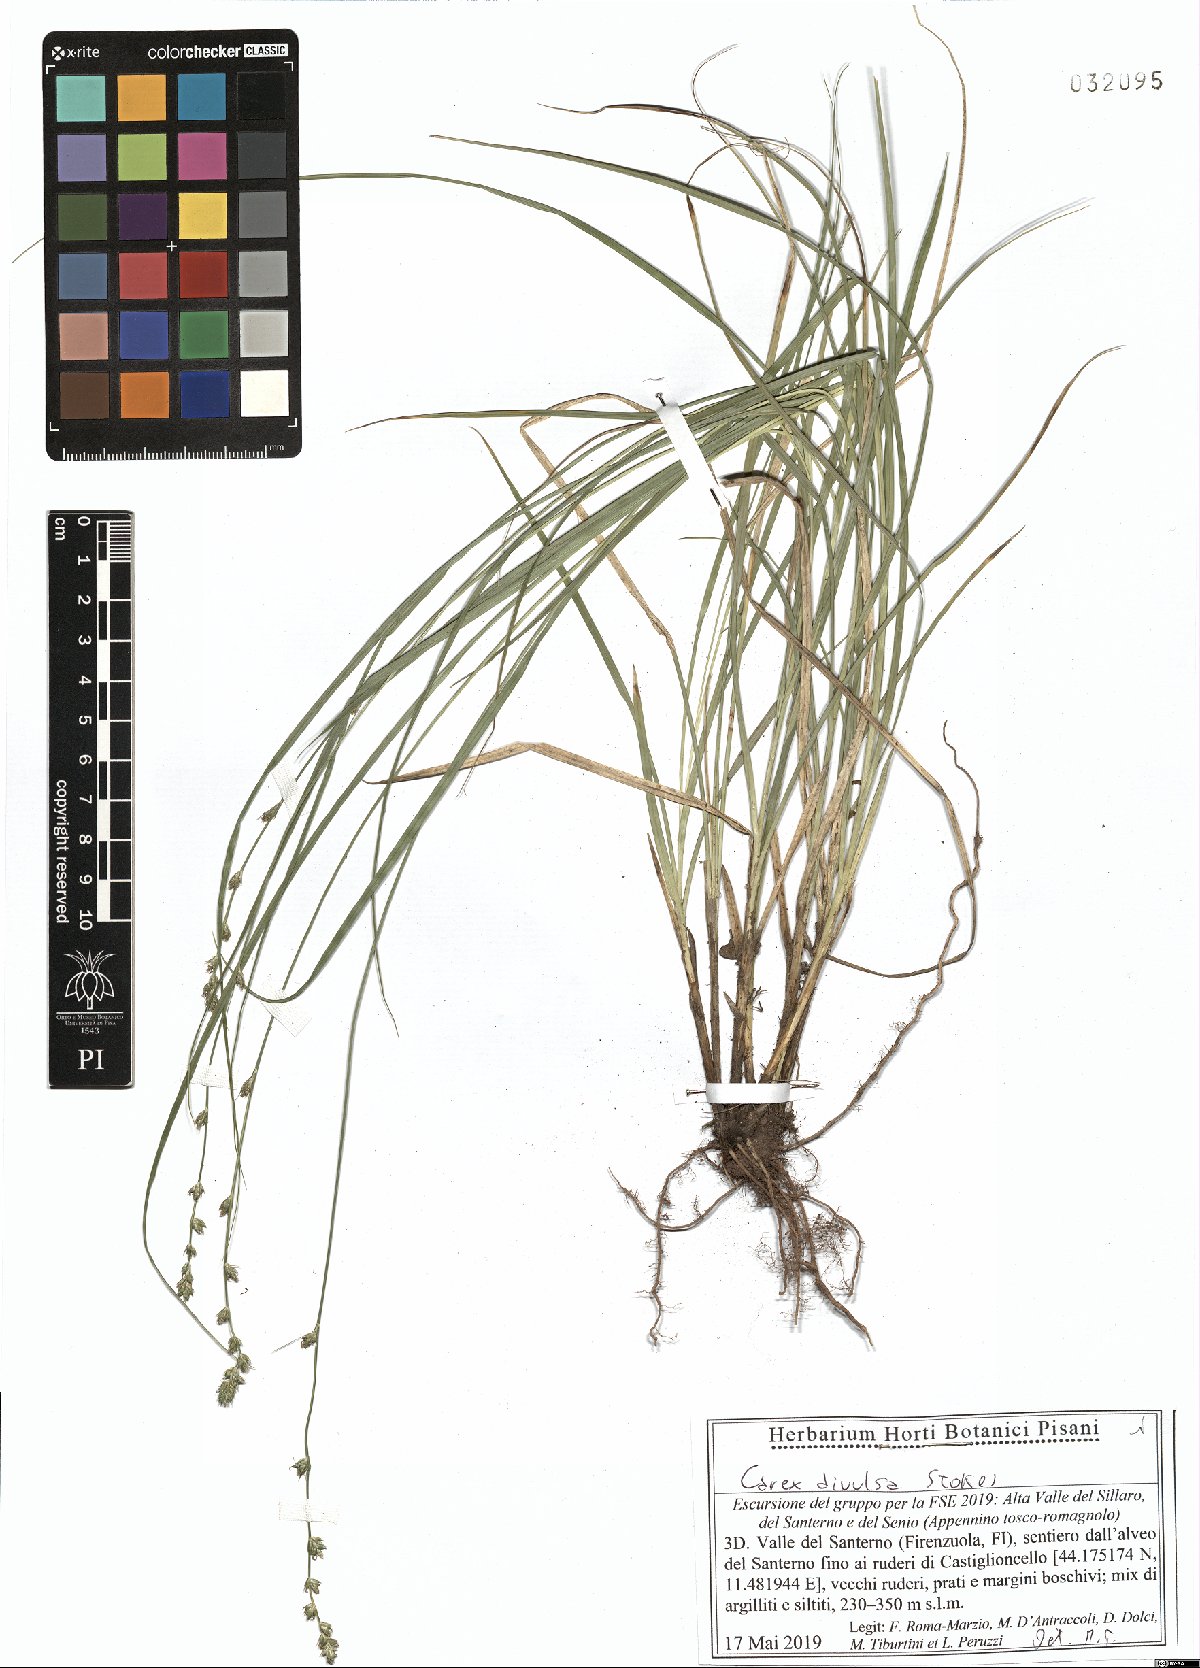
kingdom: Plantae
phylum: Tracheophyta
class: Liliopsida
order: Poales
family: Cyperaceae
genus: Carex
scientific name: Carex divulsa
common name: Grassland sedge
